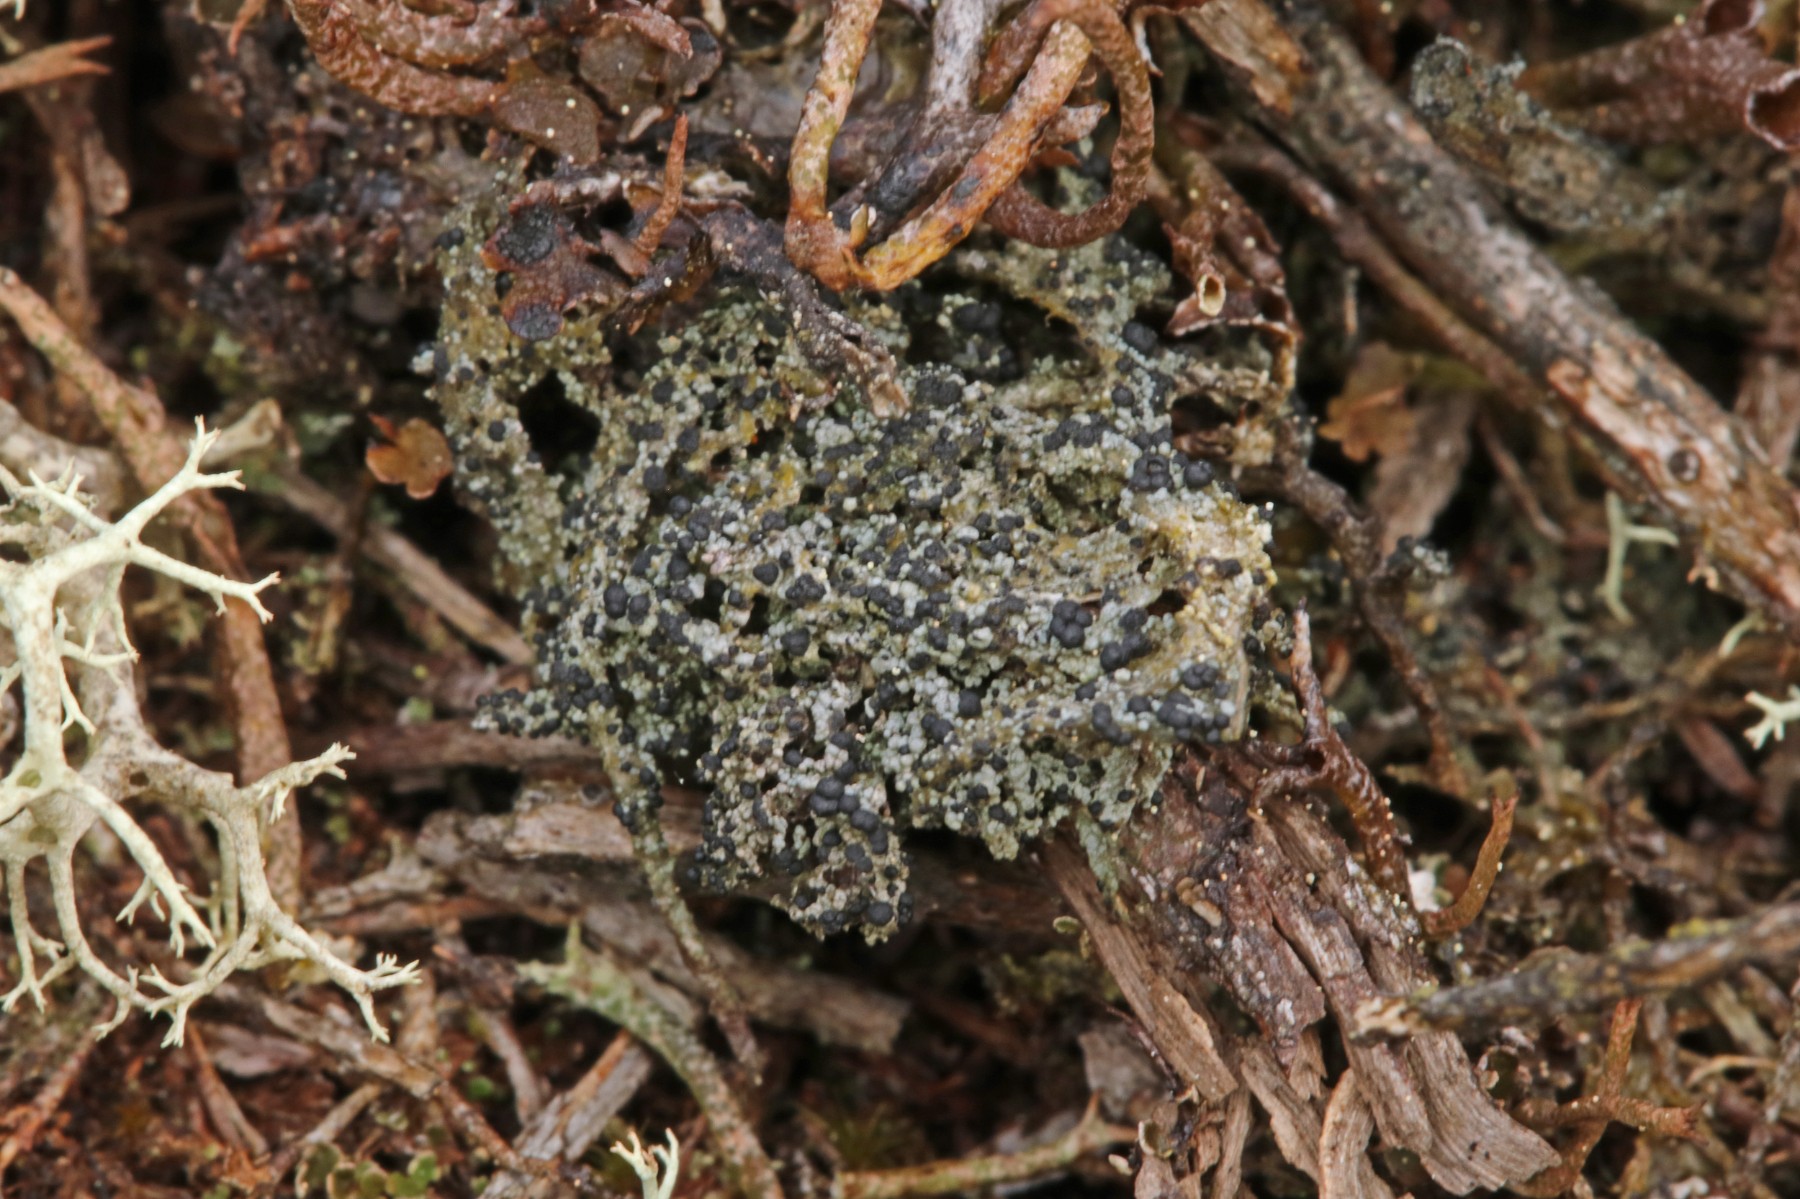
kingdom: Fungi
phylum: Ascomycota
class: Lecanoromycetes
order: Lecanorales
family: Byssolomataceae
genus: Micarea
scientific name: Micarea lignaria
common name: tørve-knaplav
